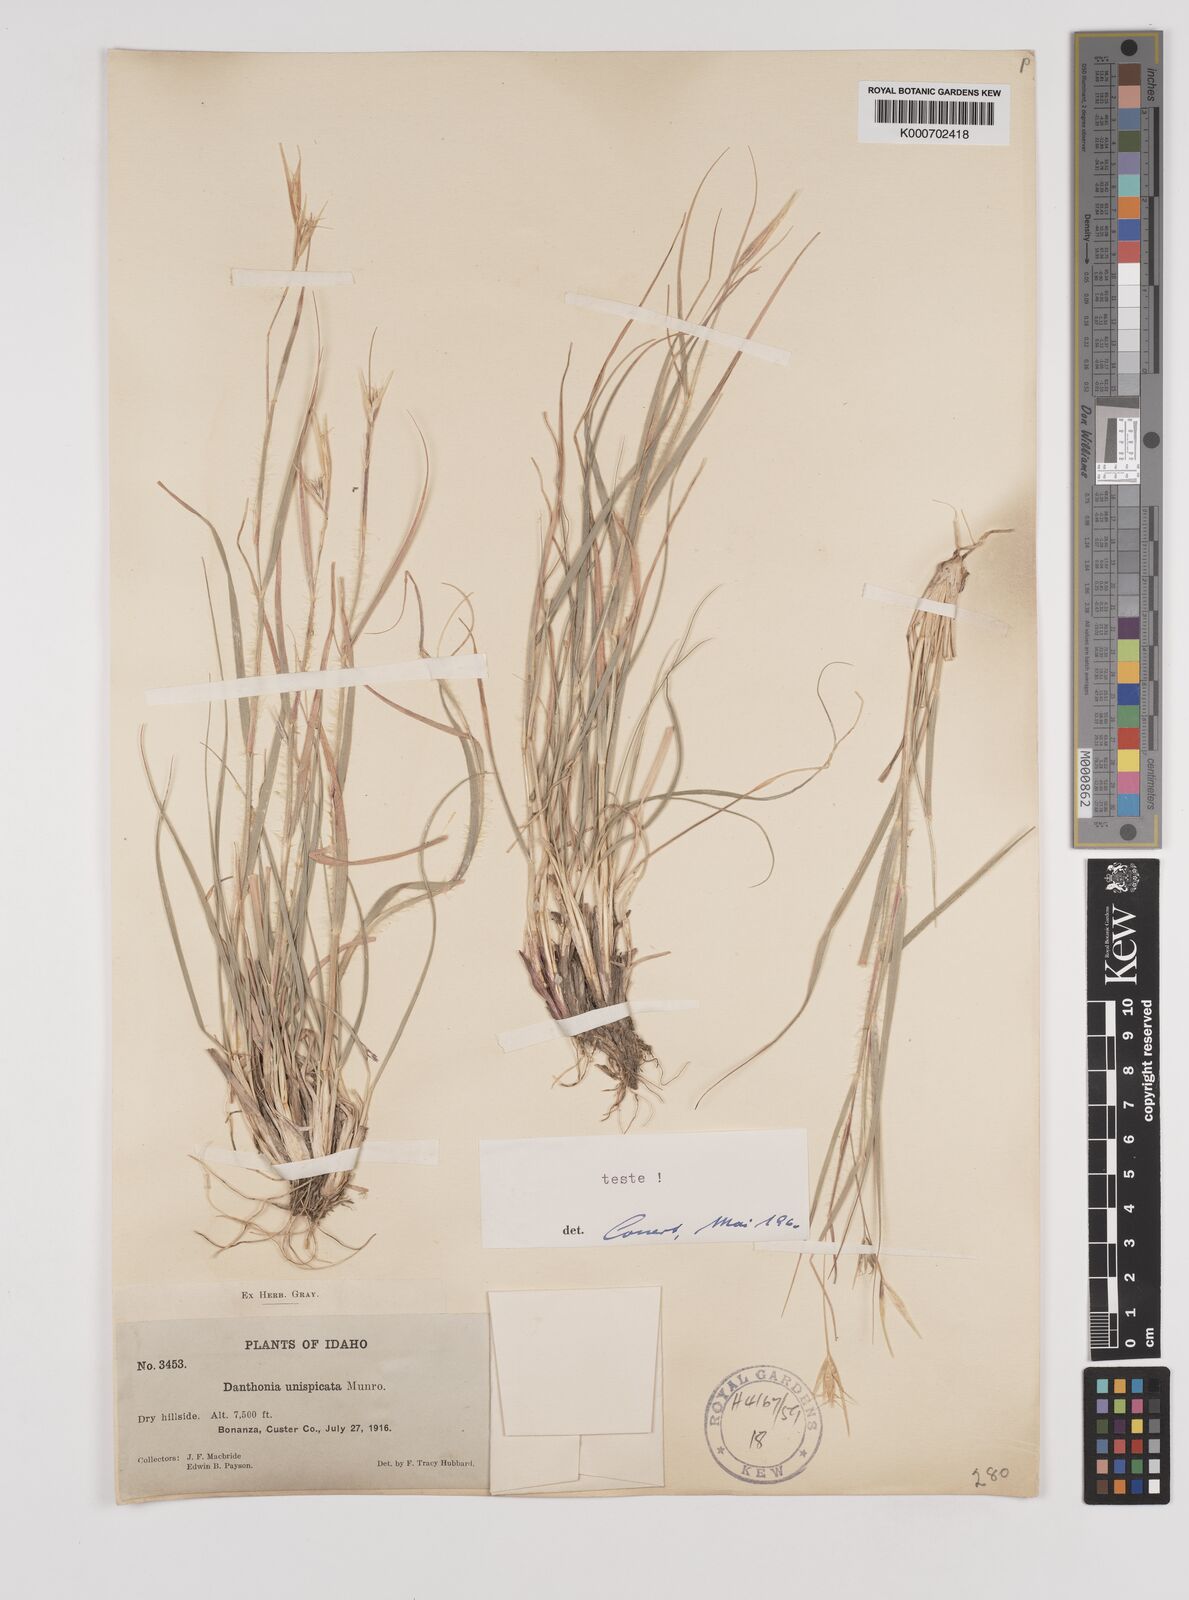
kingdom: Plantae
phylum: Tracheophyta
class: Liliopsida
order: Poales
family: Poaceae
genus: Danthonia
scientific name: Danthonia unispicata
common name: Few-flowered oatgrass
